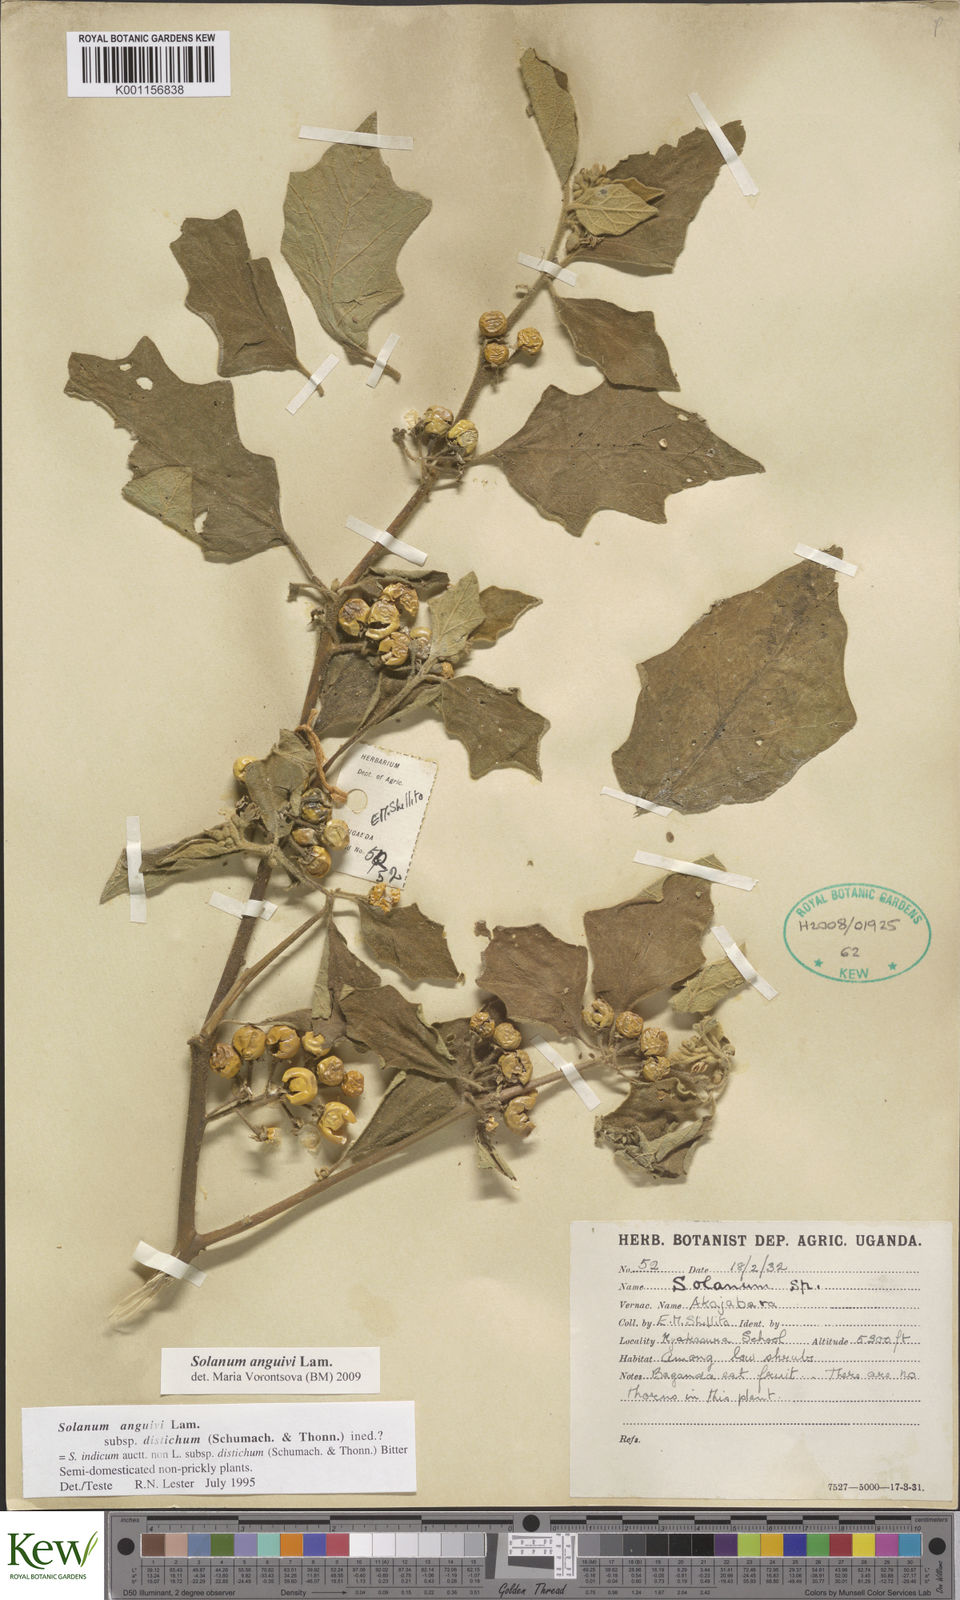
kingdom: Plantae
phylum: Tracheophyta
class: Magnoliopsida
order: Solanales
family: Solanaceae
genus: Solanum
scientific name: Solanum anguivi
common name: Forest bitterberry
